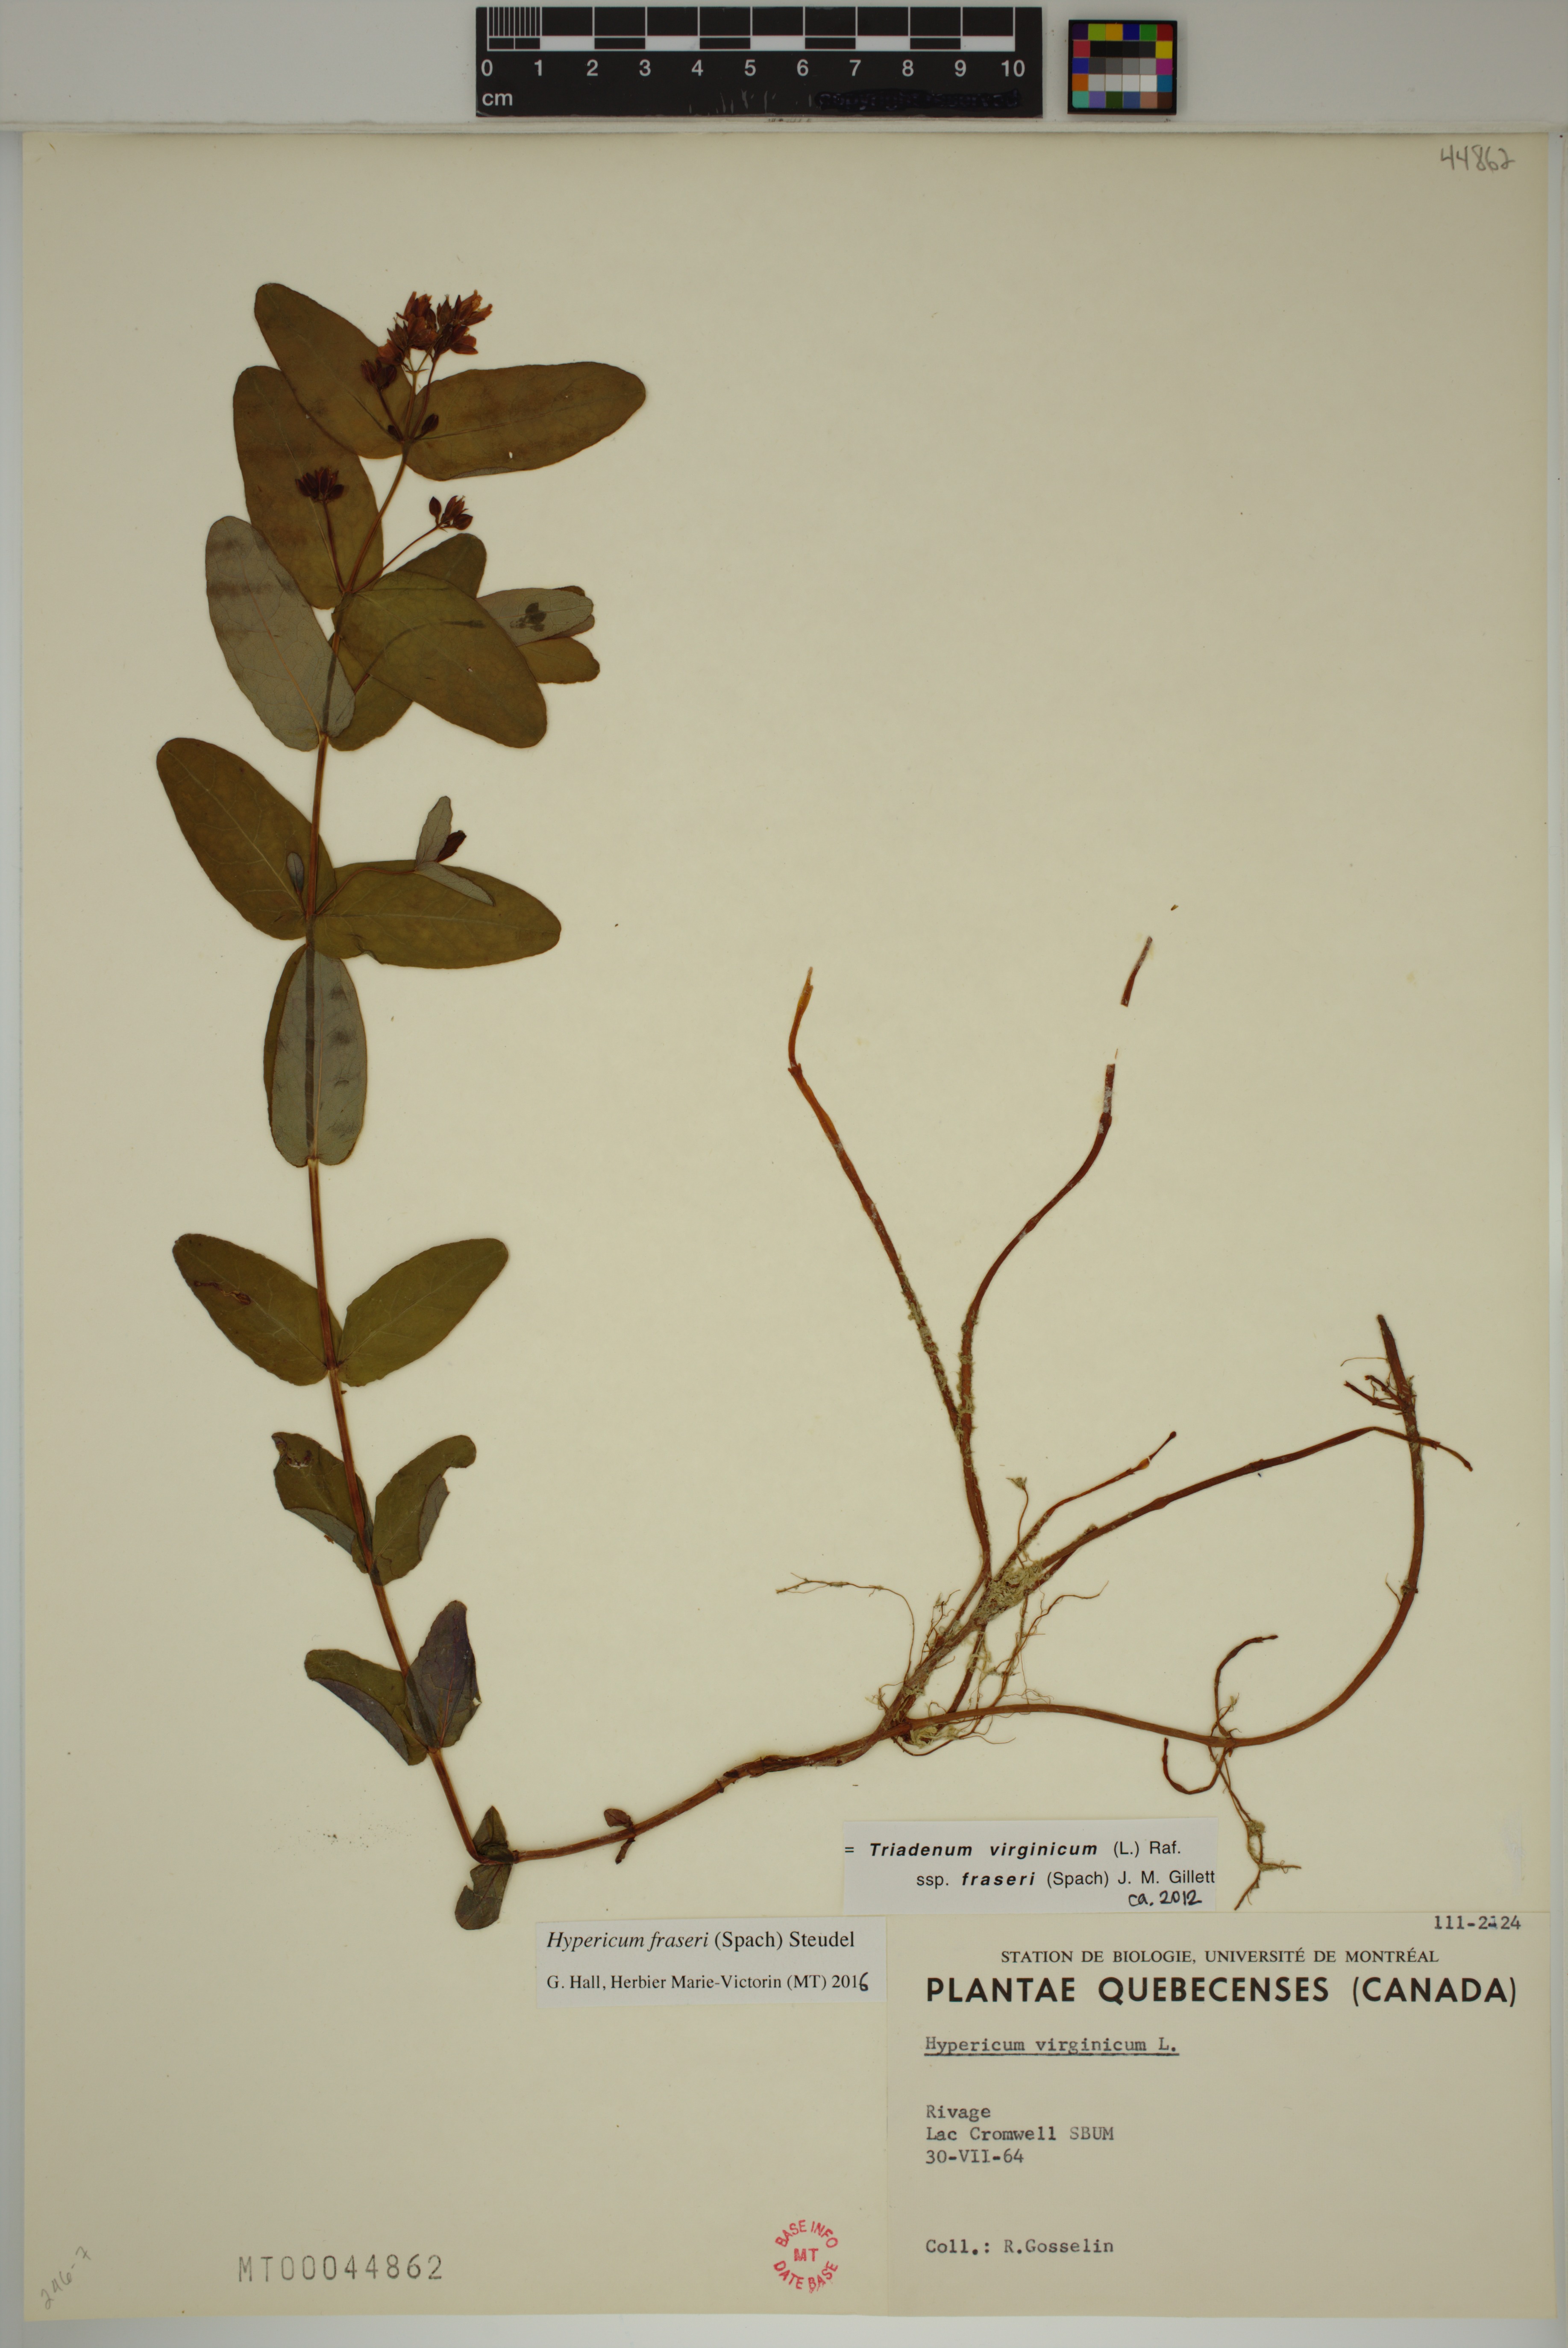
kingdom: Plantae
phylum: Tracheophyta
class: Magnoliopsida
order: Malpighiales
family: Hypericaceae
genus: Triadenum
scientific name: Triadenum fraseri
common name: Fraser's marsh st. johnswort
